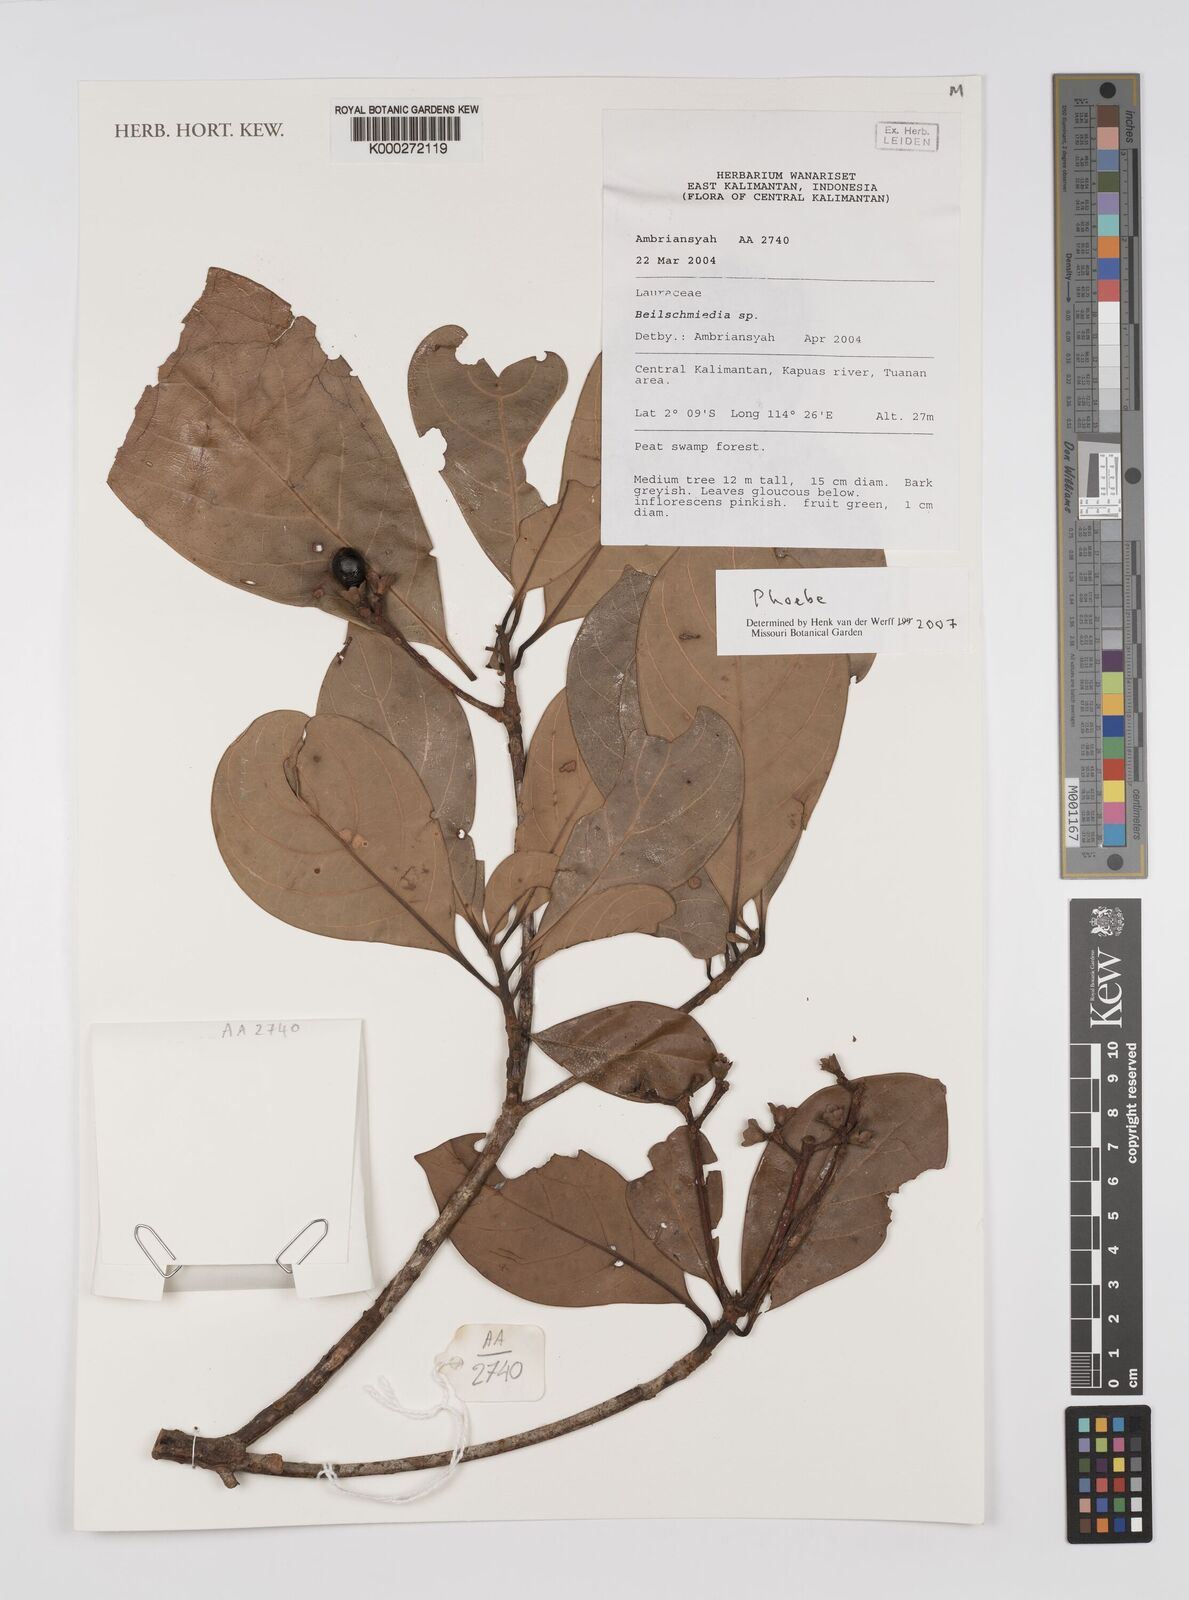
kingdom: Plantae
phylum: Tracheophyta
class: Magnoliopsida
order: Laurales
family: Lauraceae
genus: Phoebe
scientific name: Phoebe
